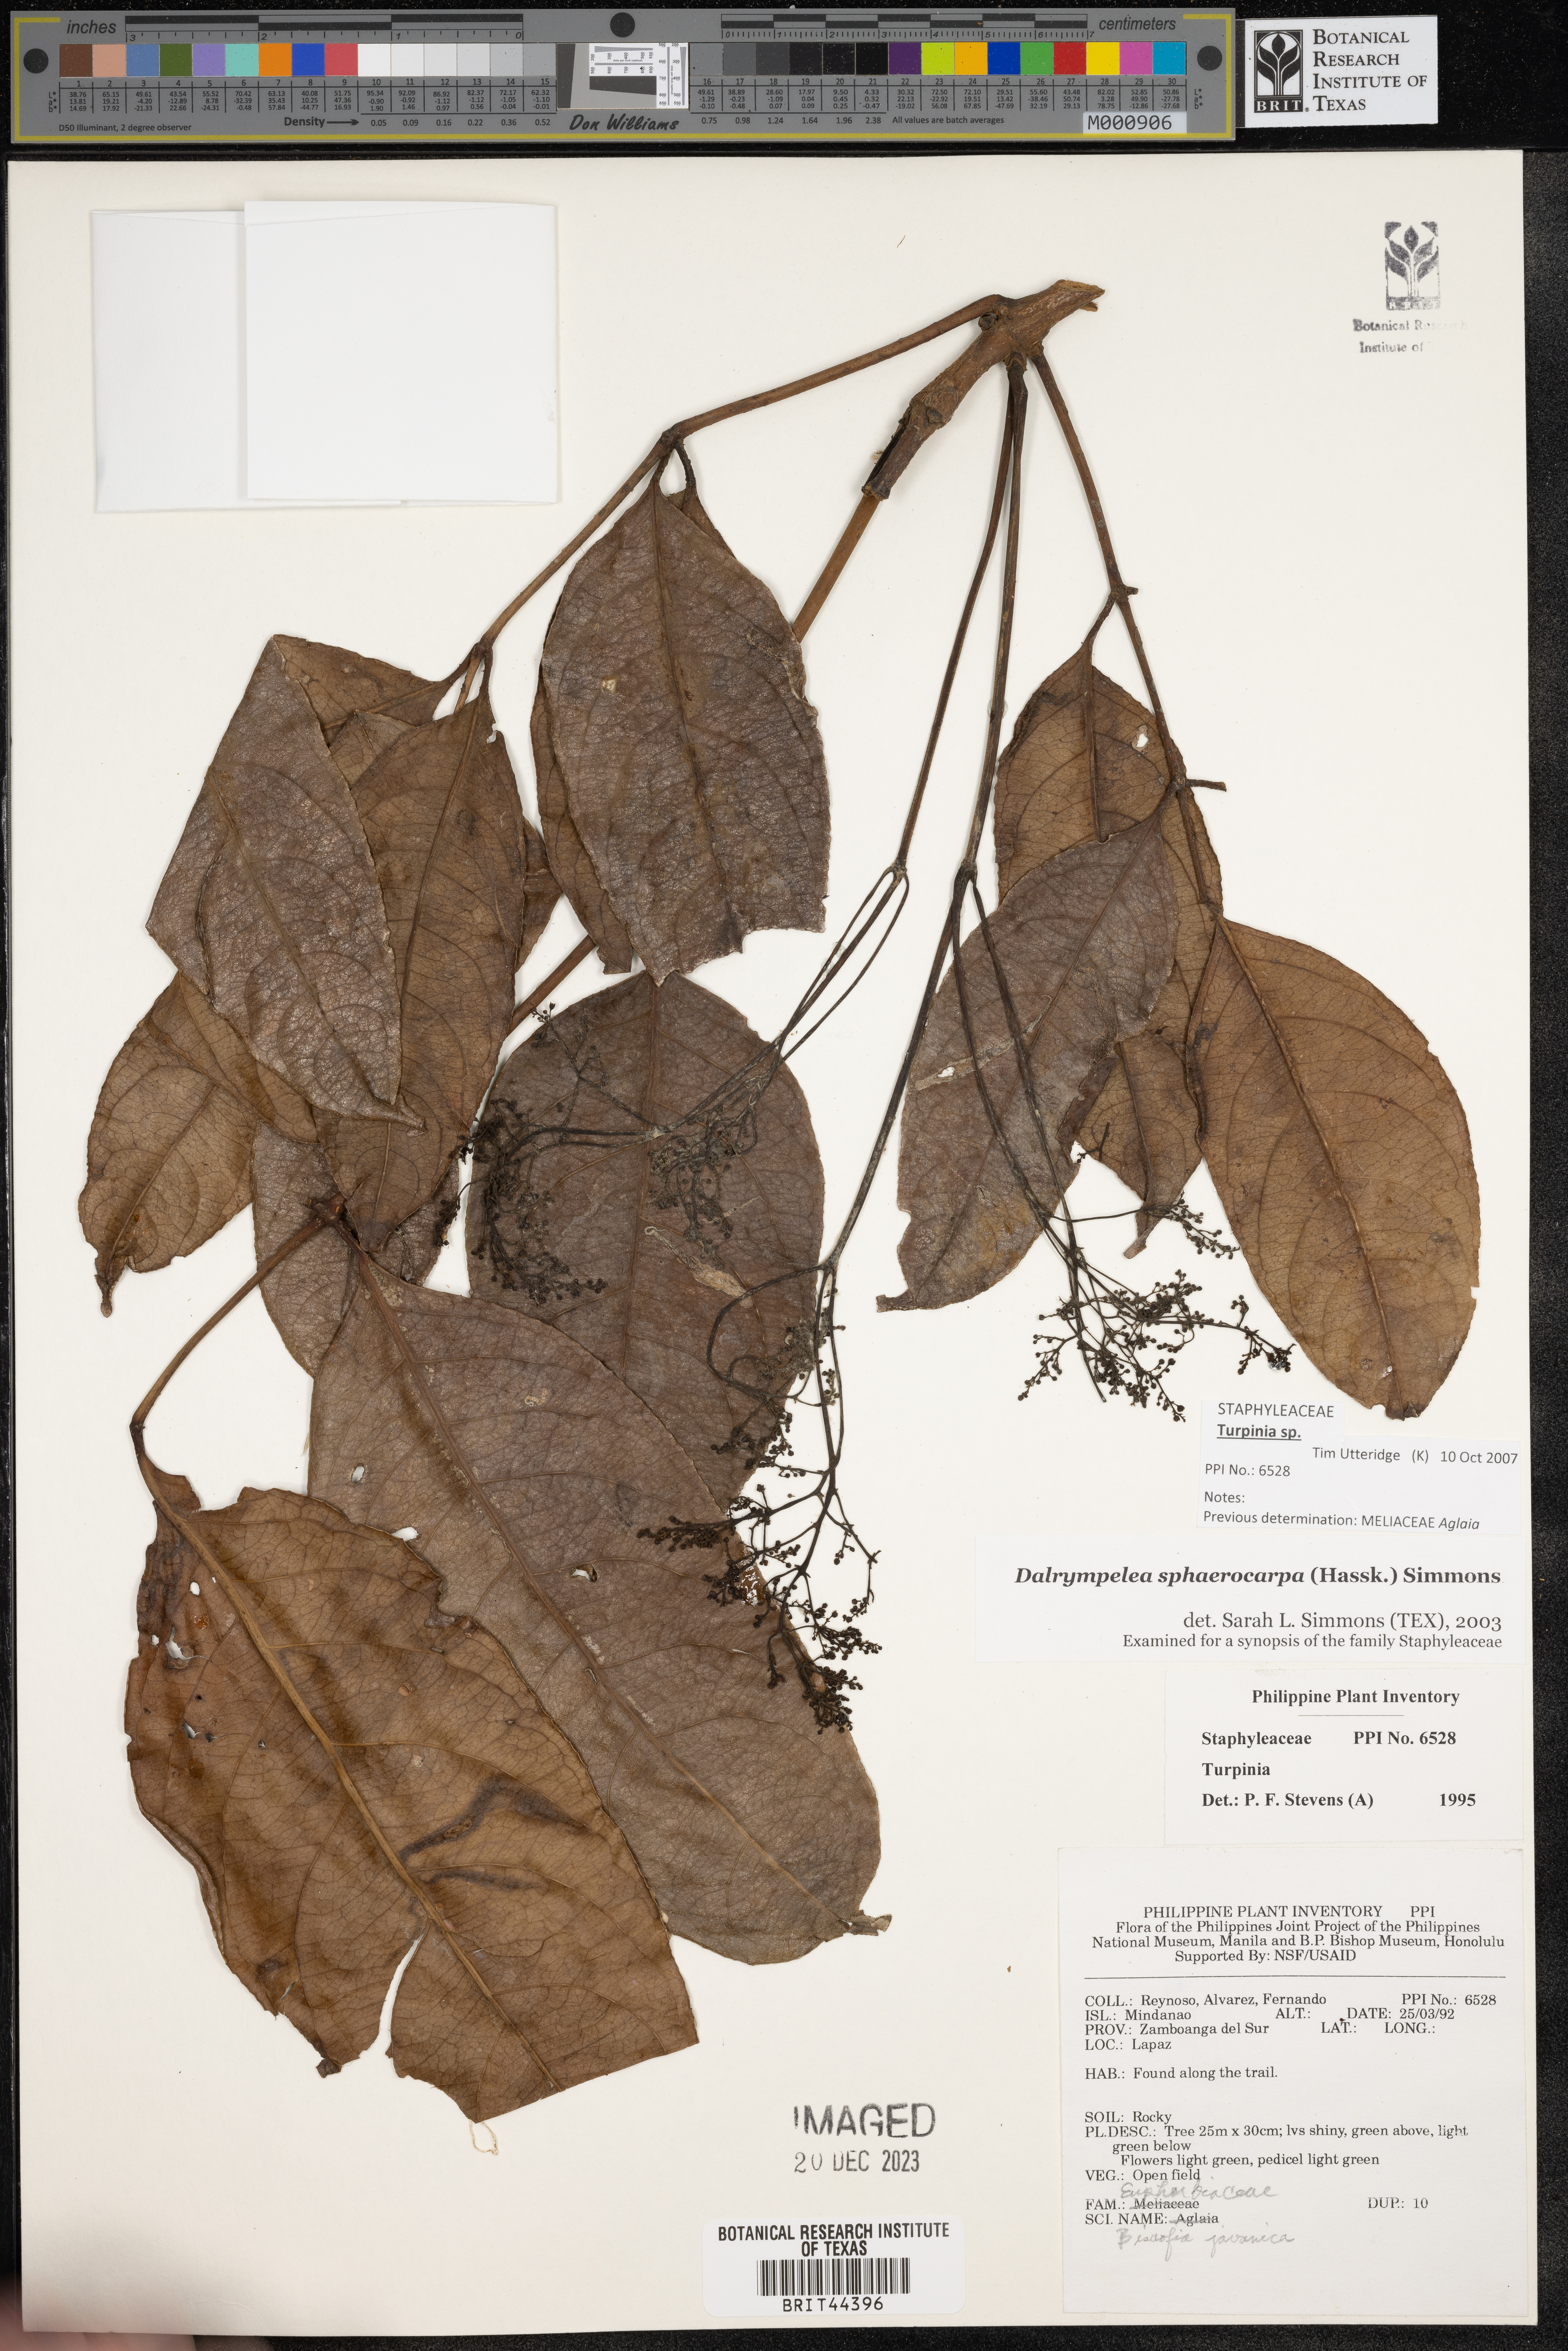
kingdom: Plantae
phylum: Tracheophyta
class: Magnoliopsida
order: Crossosomatales
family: Staphyleaceae
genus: Dalrympelea
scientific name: Dalrympelea sphaerocarpa
